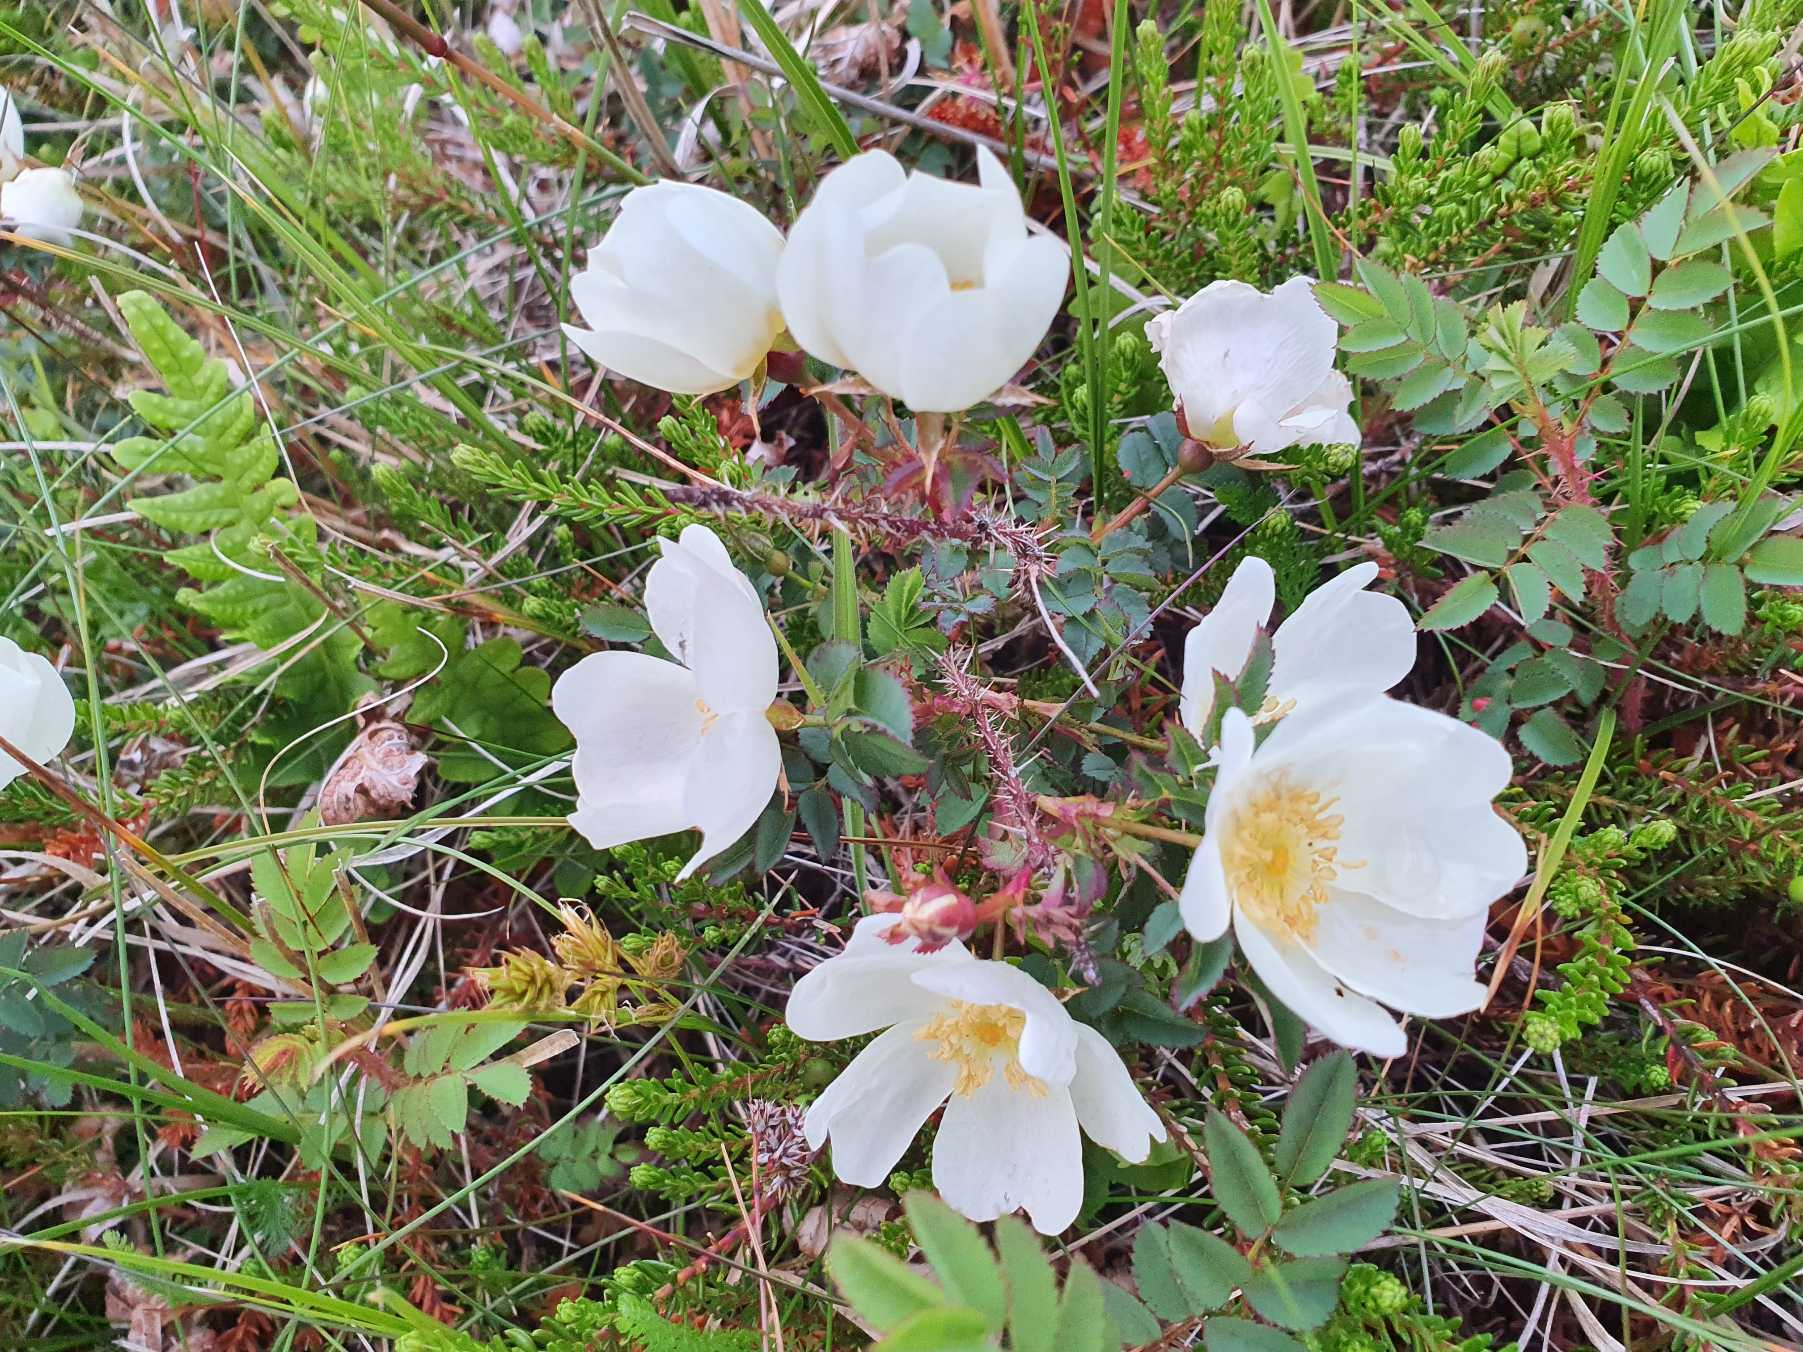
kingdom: Plantae
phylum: Tracheophyta
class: Magnoliopsida
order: Rosales
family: Rosaceae
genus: Rosa
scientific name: Rosa spinosissima
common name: Klit-rose
